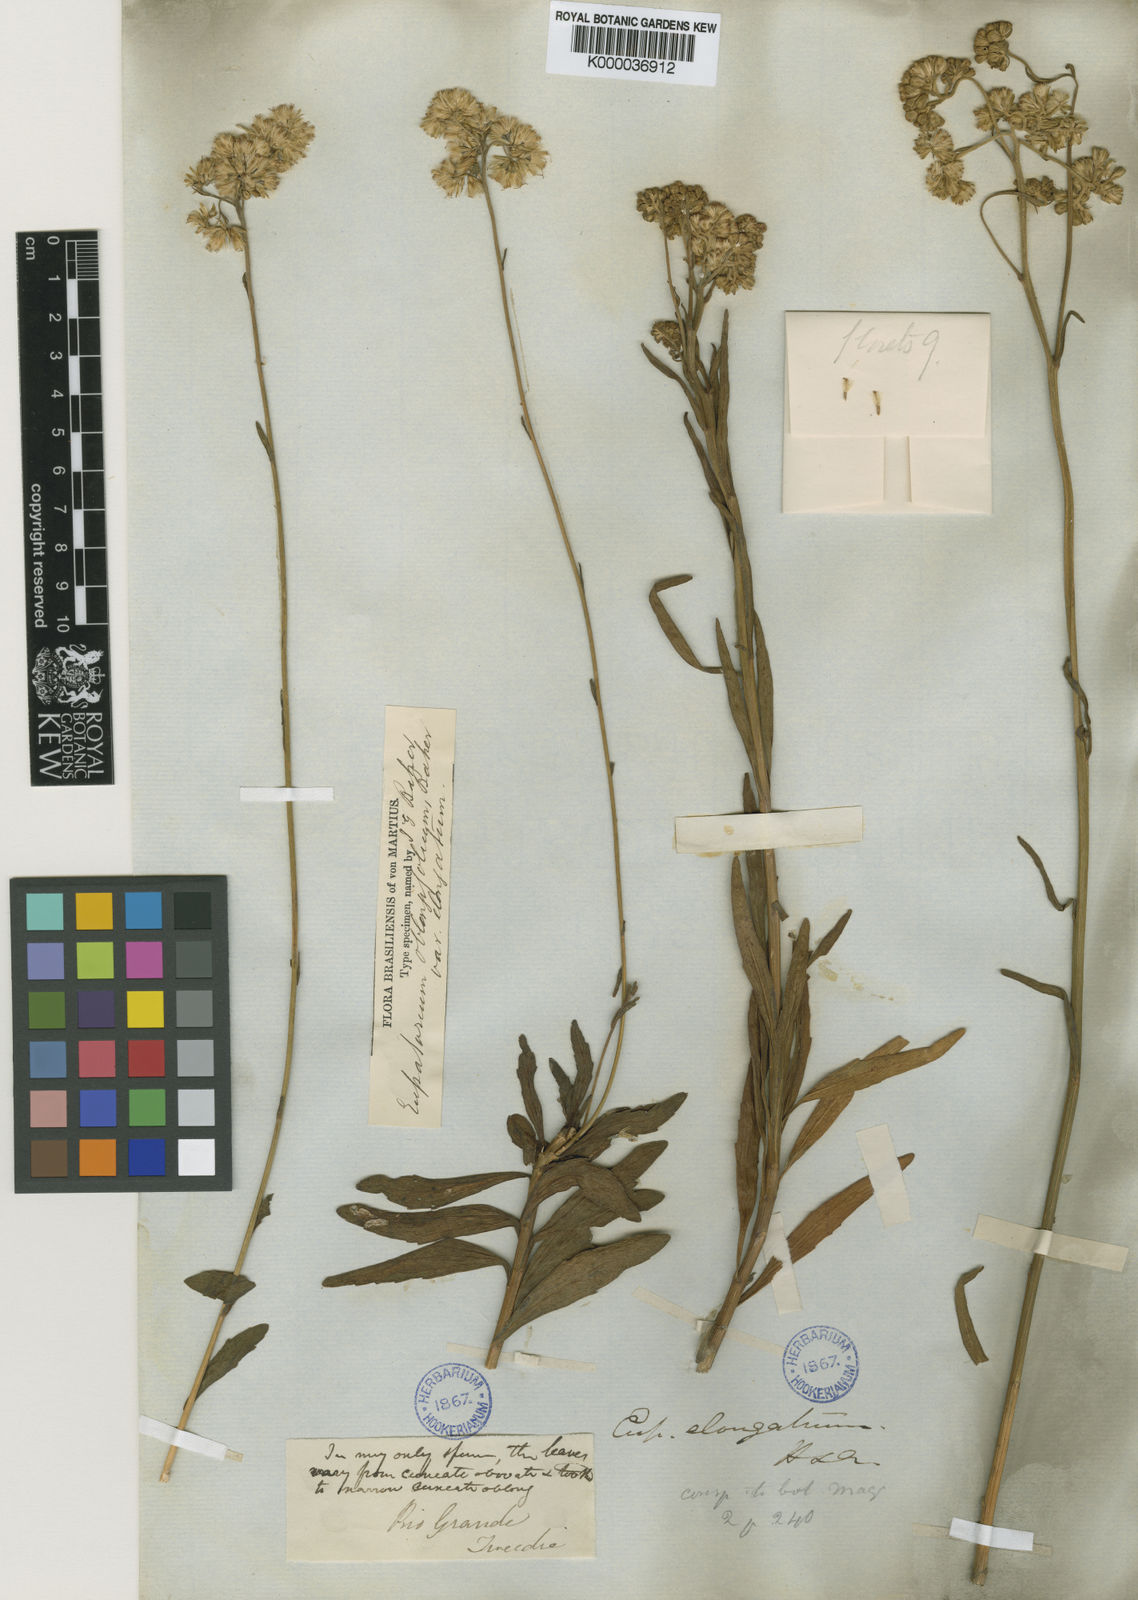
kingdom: Plantae
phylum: Tracheophyta
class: Magnoliopsida
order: Asterales
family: Asteraceae
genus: Stomatanthes
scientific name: Stomatanthes oblongifolius
